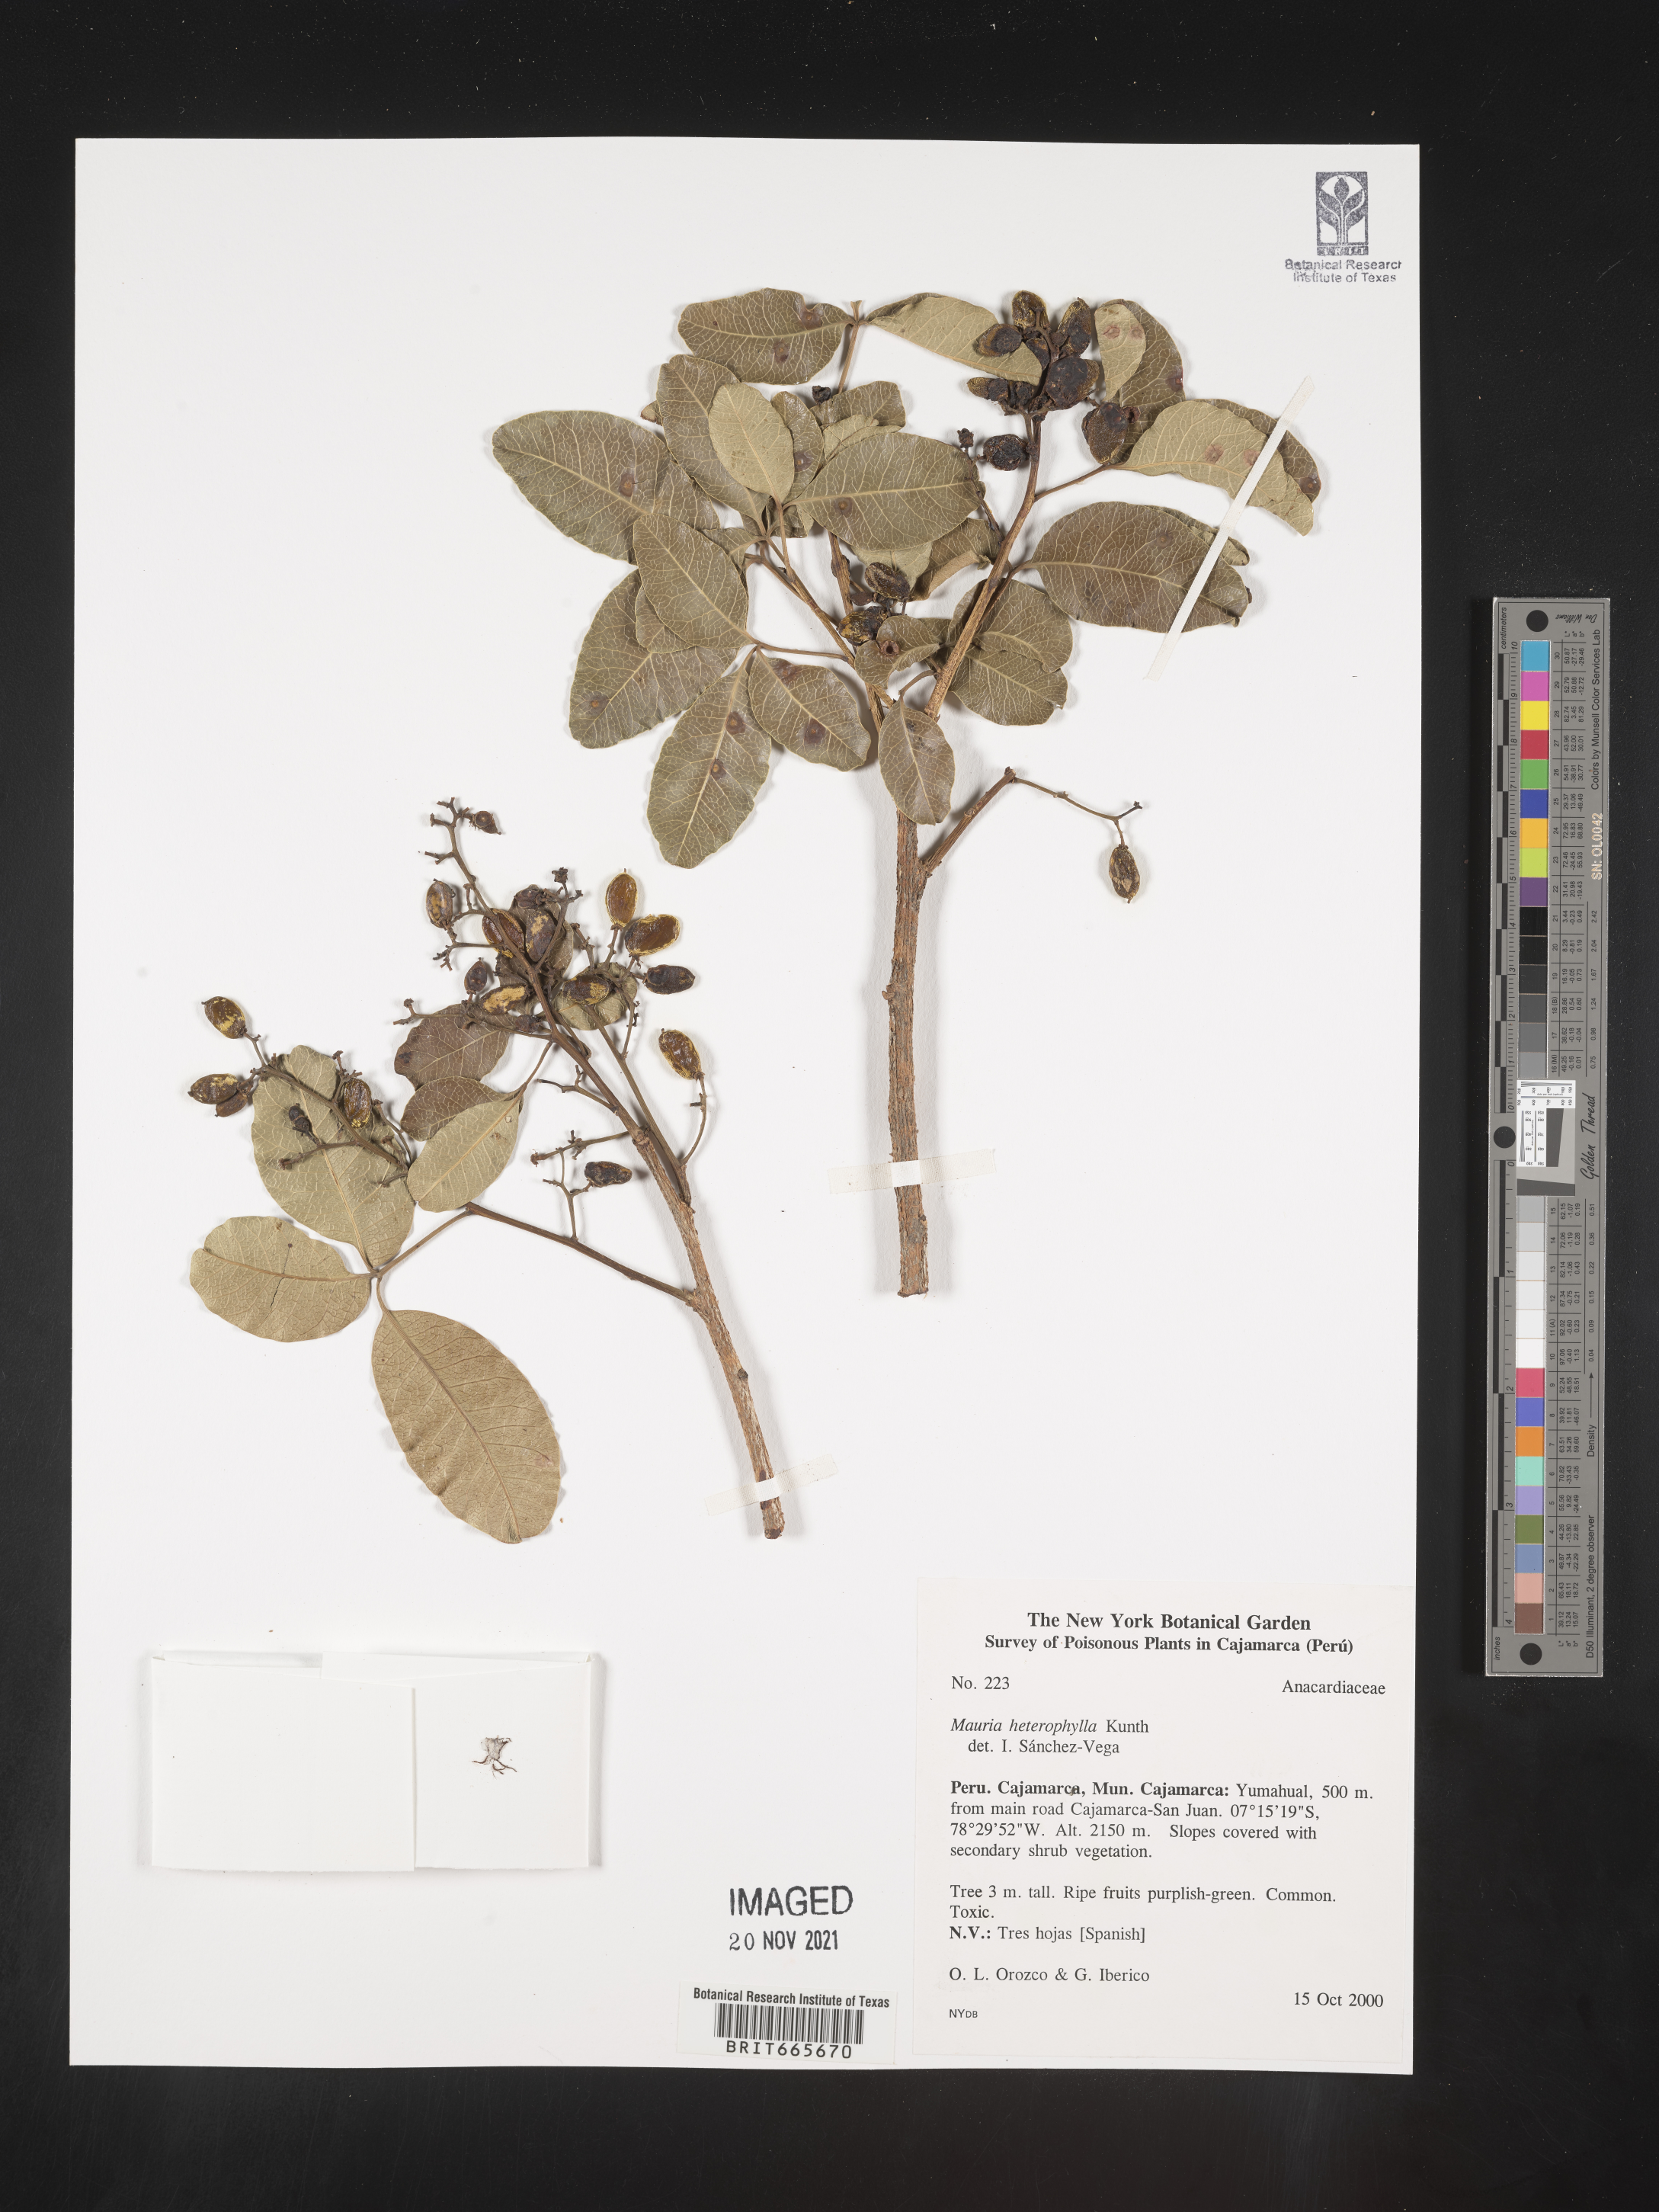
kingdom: Plantae
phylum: Tracheophyta
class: Magnoliopsida
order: Sapindales
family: Anacardiaceae
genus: Mauria
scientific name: Mauria
